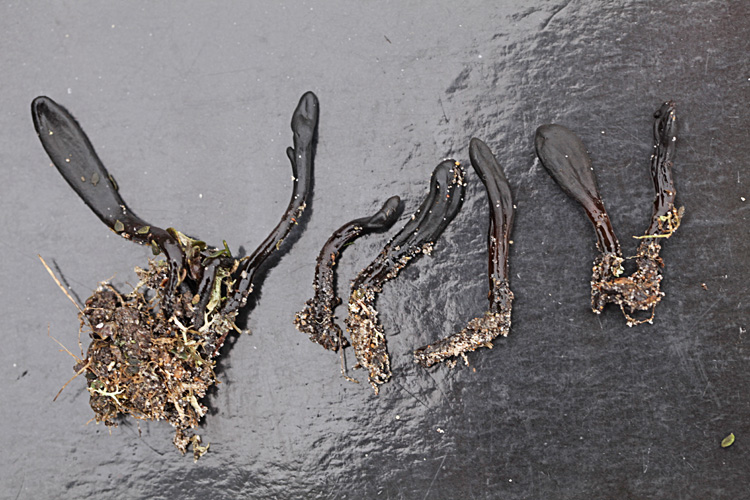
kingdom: Fungi
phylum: Ascomycota
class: Geoglossomycetes
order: Geoglossales
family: Geoglossaceae
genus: Glutinoglossum
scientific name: Glutinoglossum glutinosum
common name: slimet jordtunge
